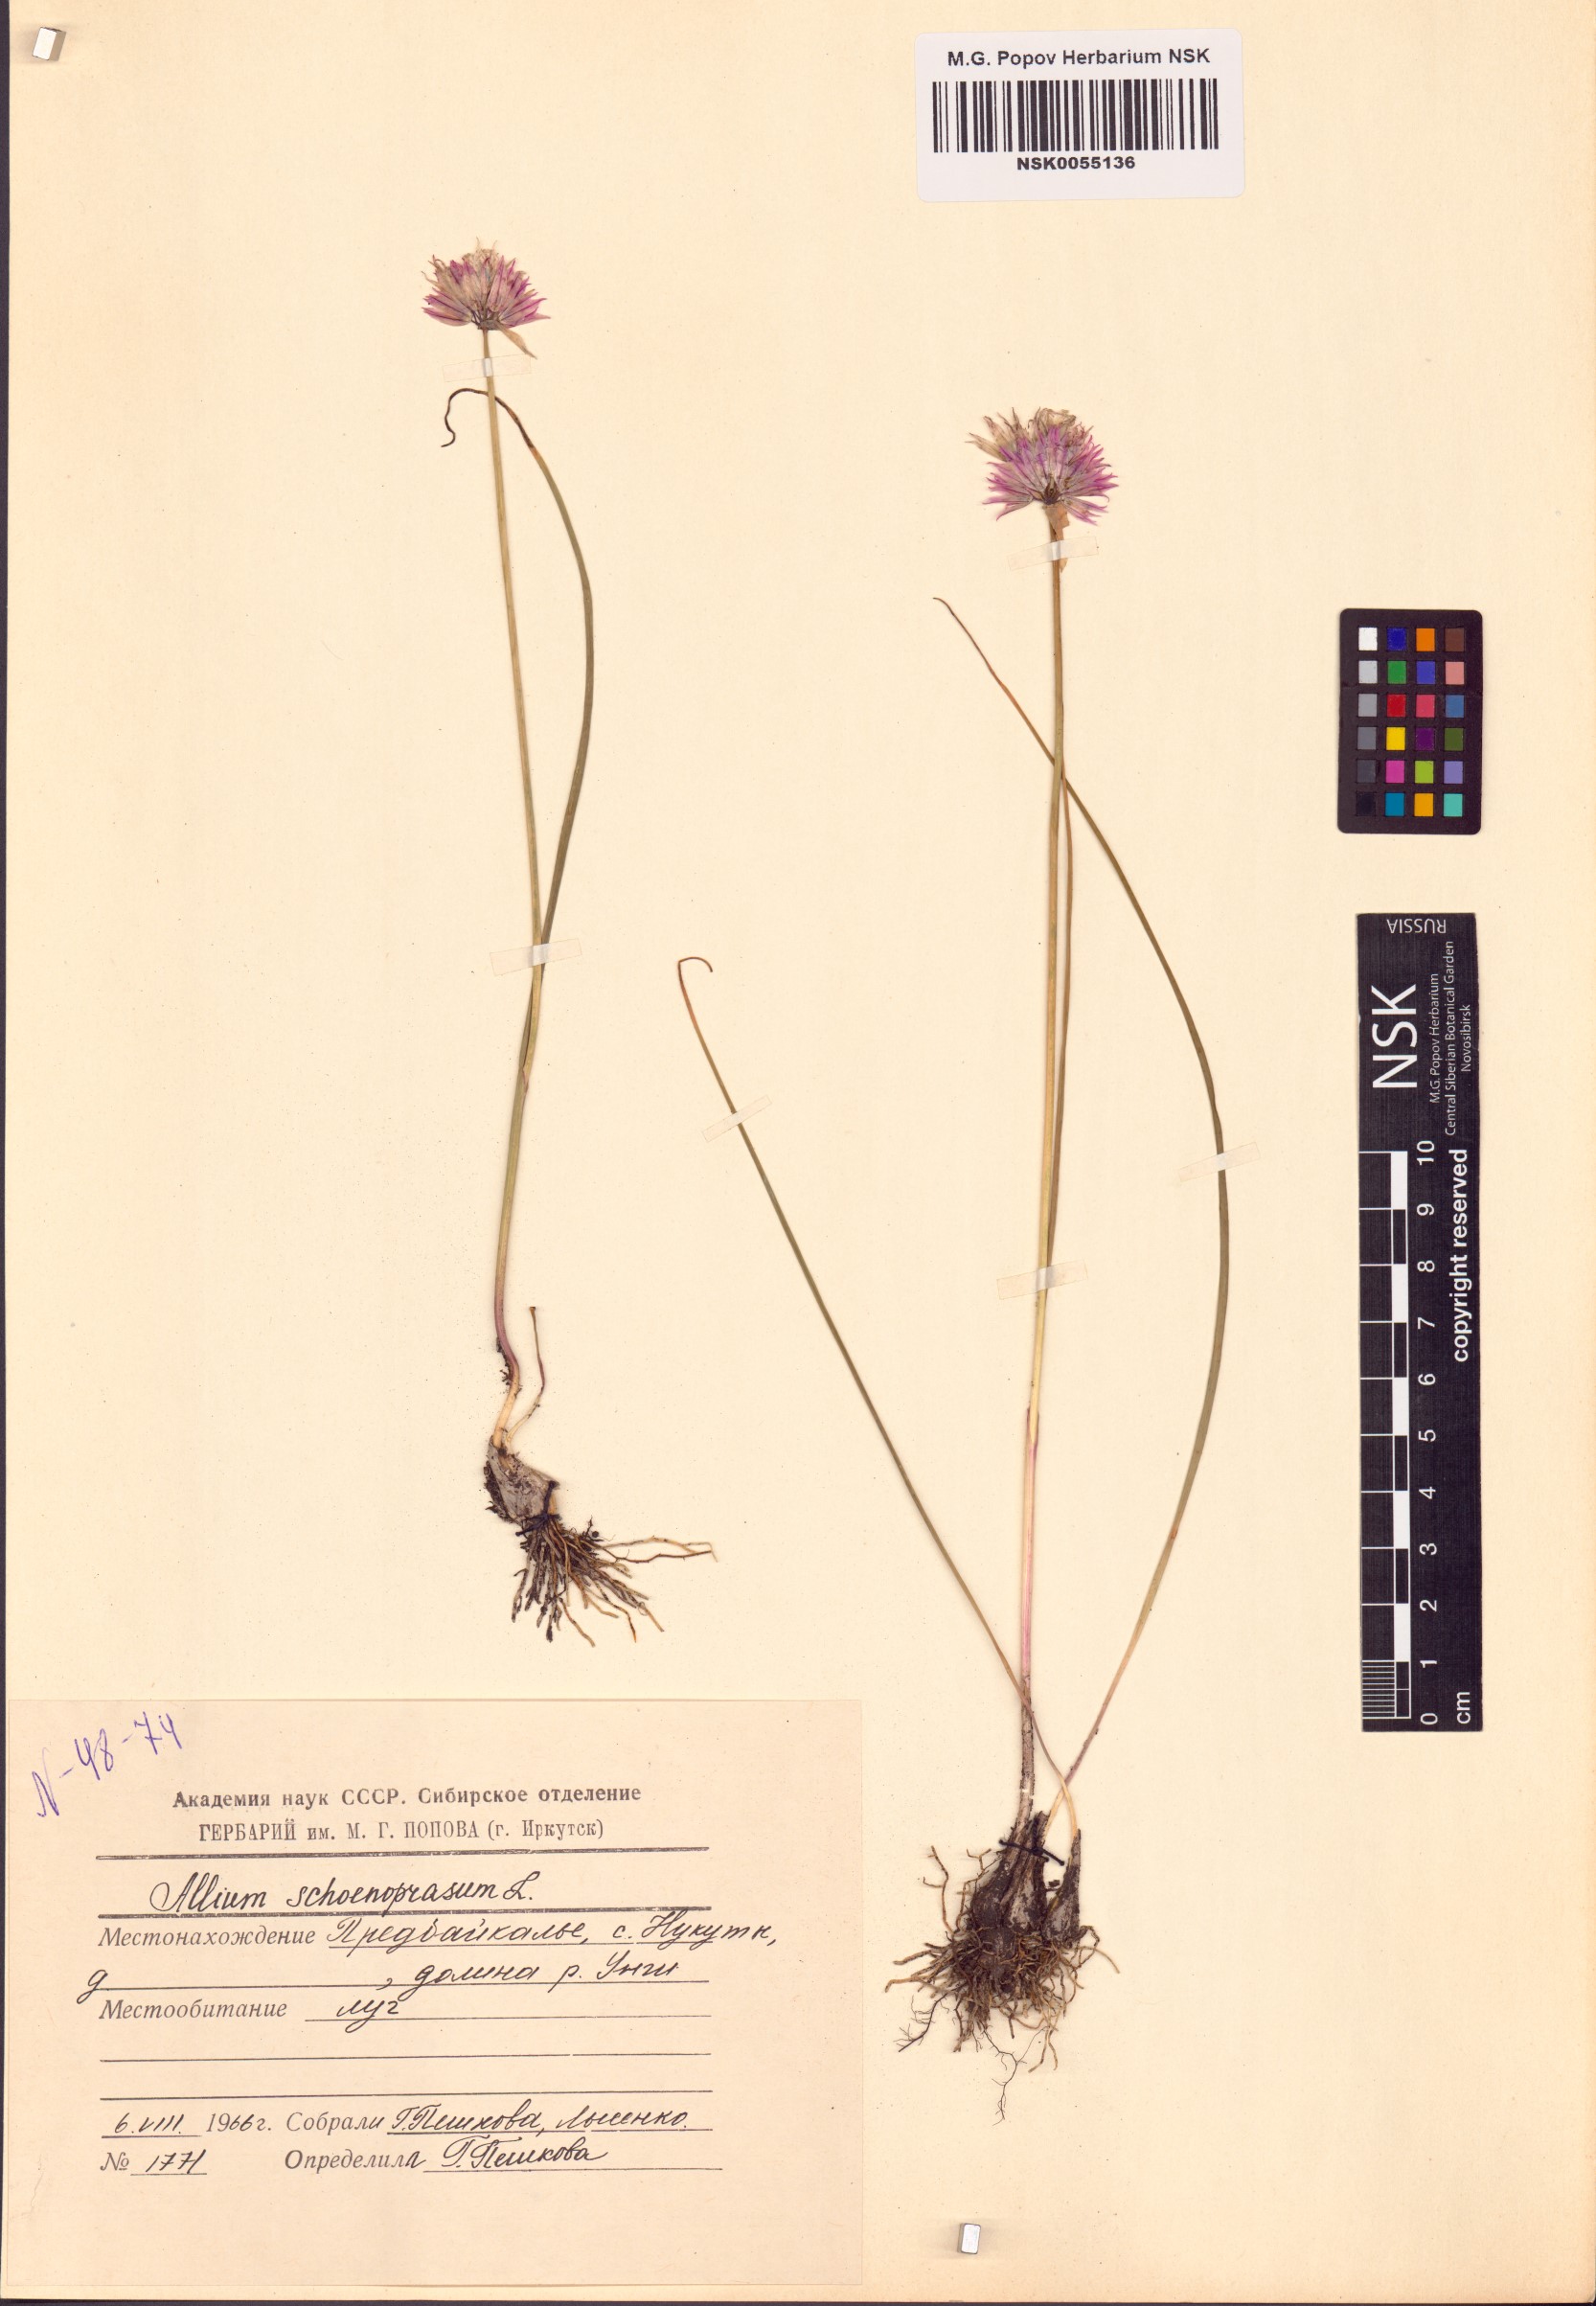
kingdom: Plantae
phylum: Tracheophyta
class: Liliopsida
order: Asparagales
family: Amaryllidaceae
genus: Allium
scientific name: Allium schoenoprasum
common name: Chives
